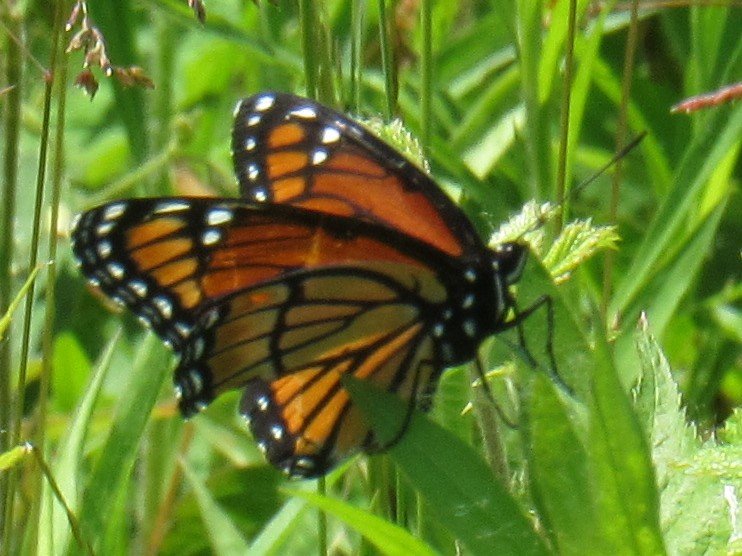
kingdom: Animalia
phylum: Arthropoda
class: Insecta
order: Lepidoptera
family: Nymphalidae
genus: Limenitis
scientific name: Limenitis archippus
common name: Viceroy
